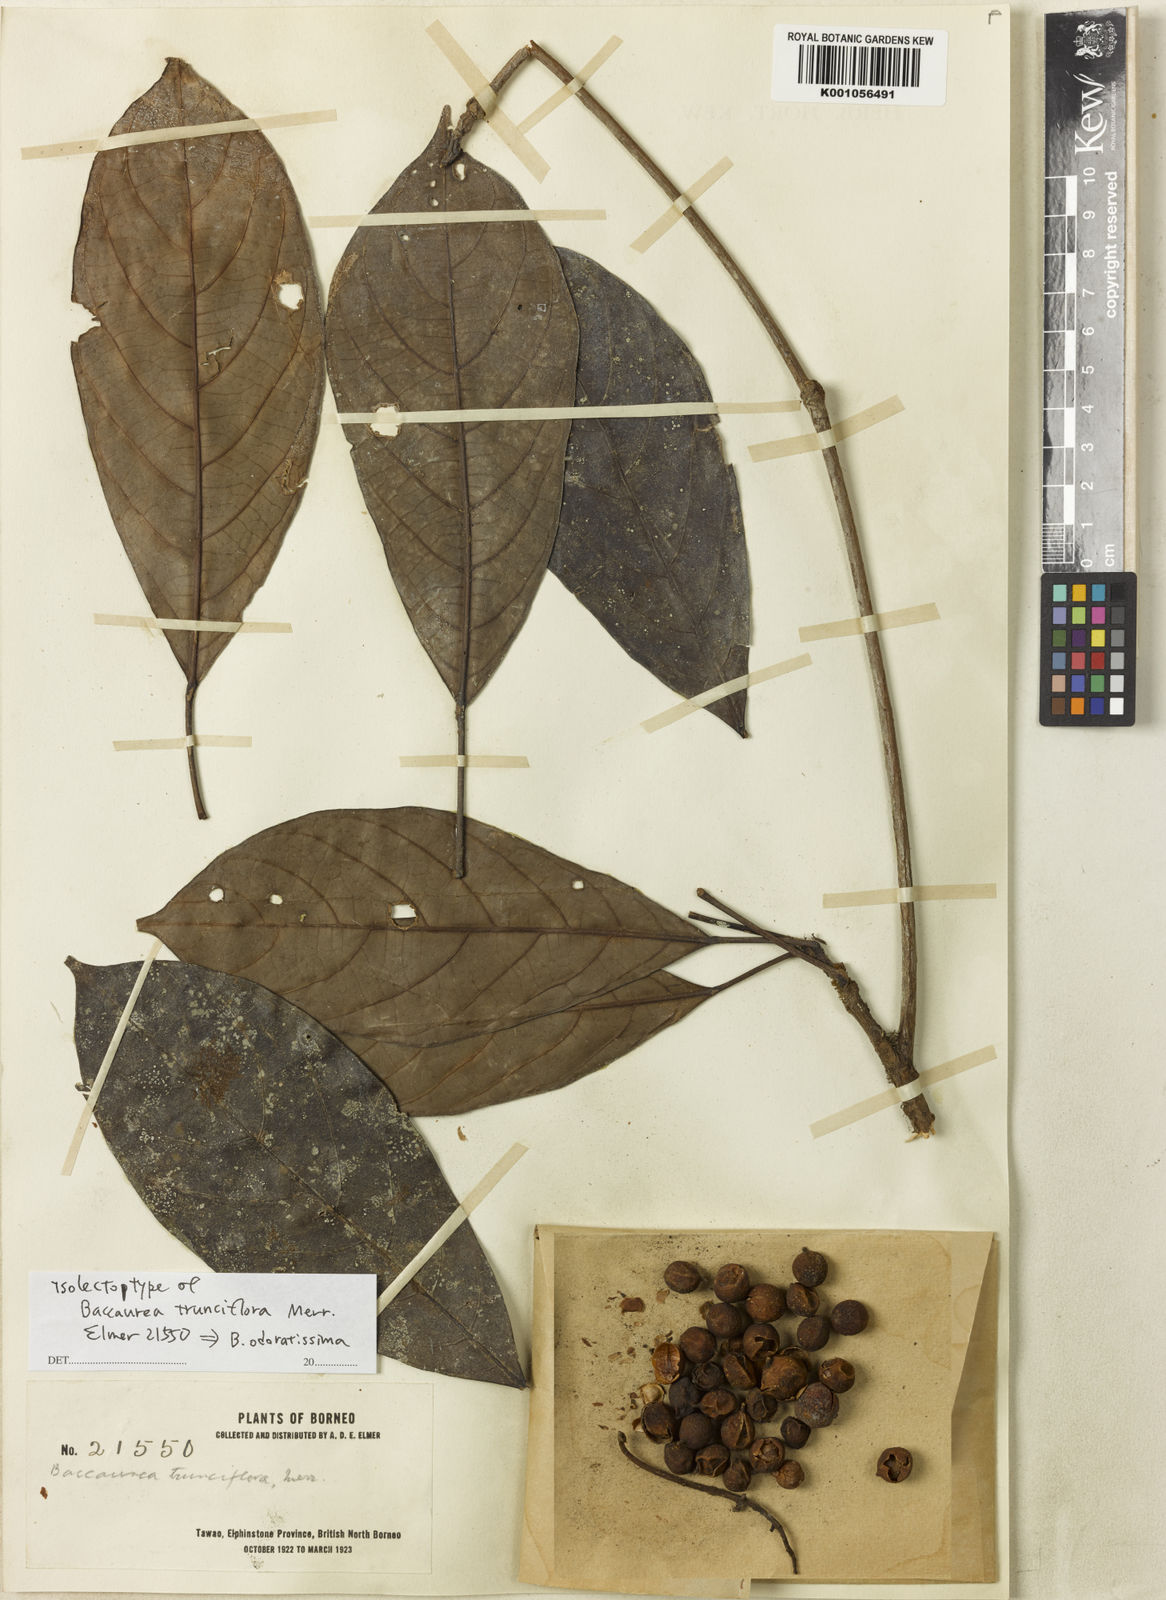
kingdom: Plantae
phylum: Tracheophyta
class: Magnoliopsida
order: Malpighiales
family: Phyllanthaceae
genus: Baccaurea
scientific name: Baccaurea odoratissima
